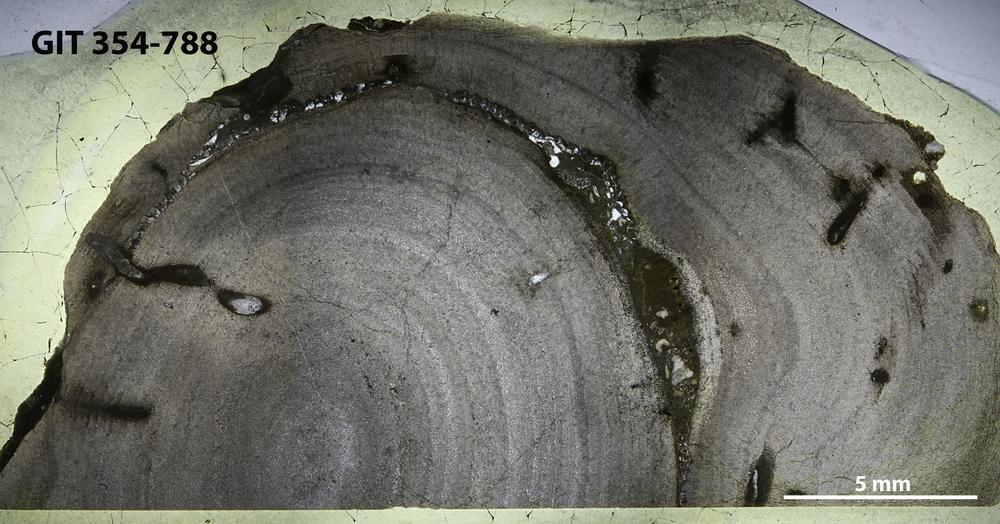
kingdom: Animalia
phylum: Porifera
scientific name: Porifera
